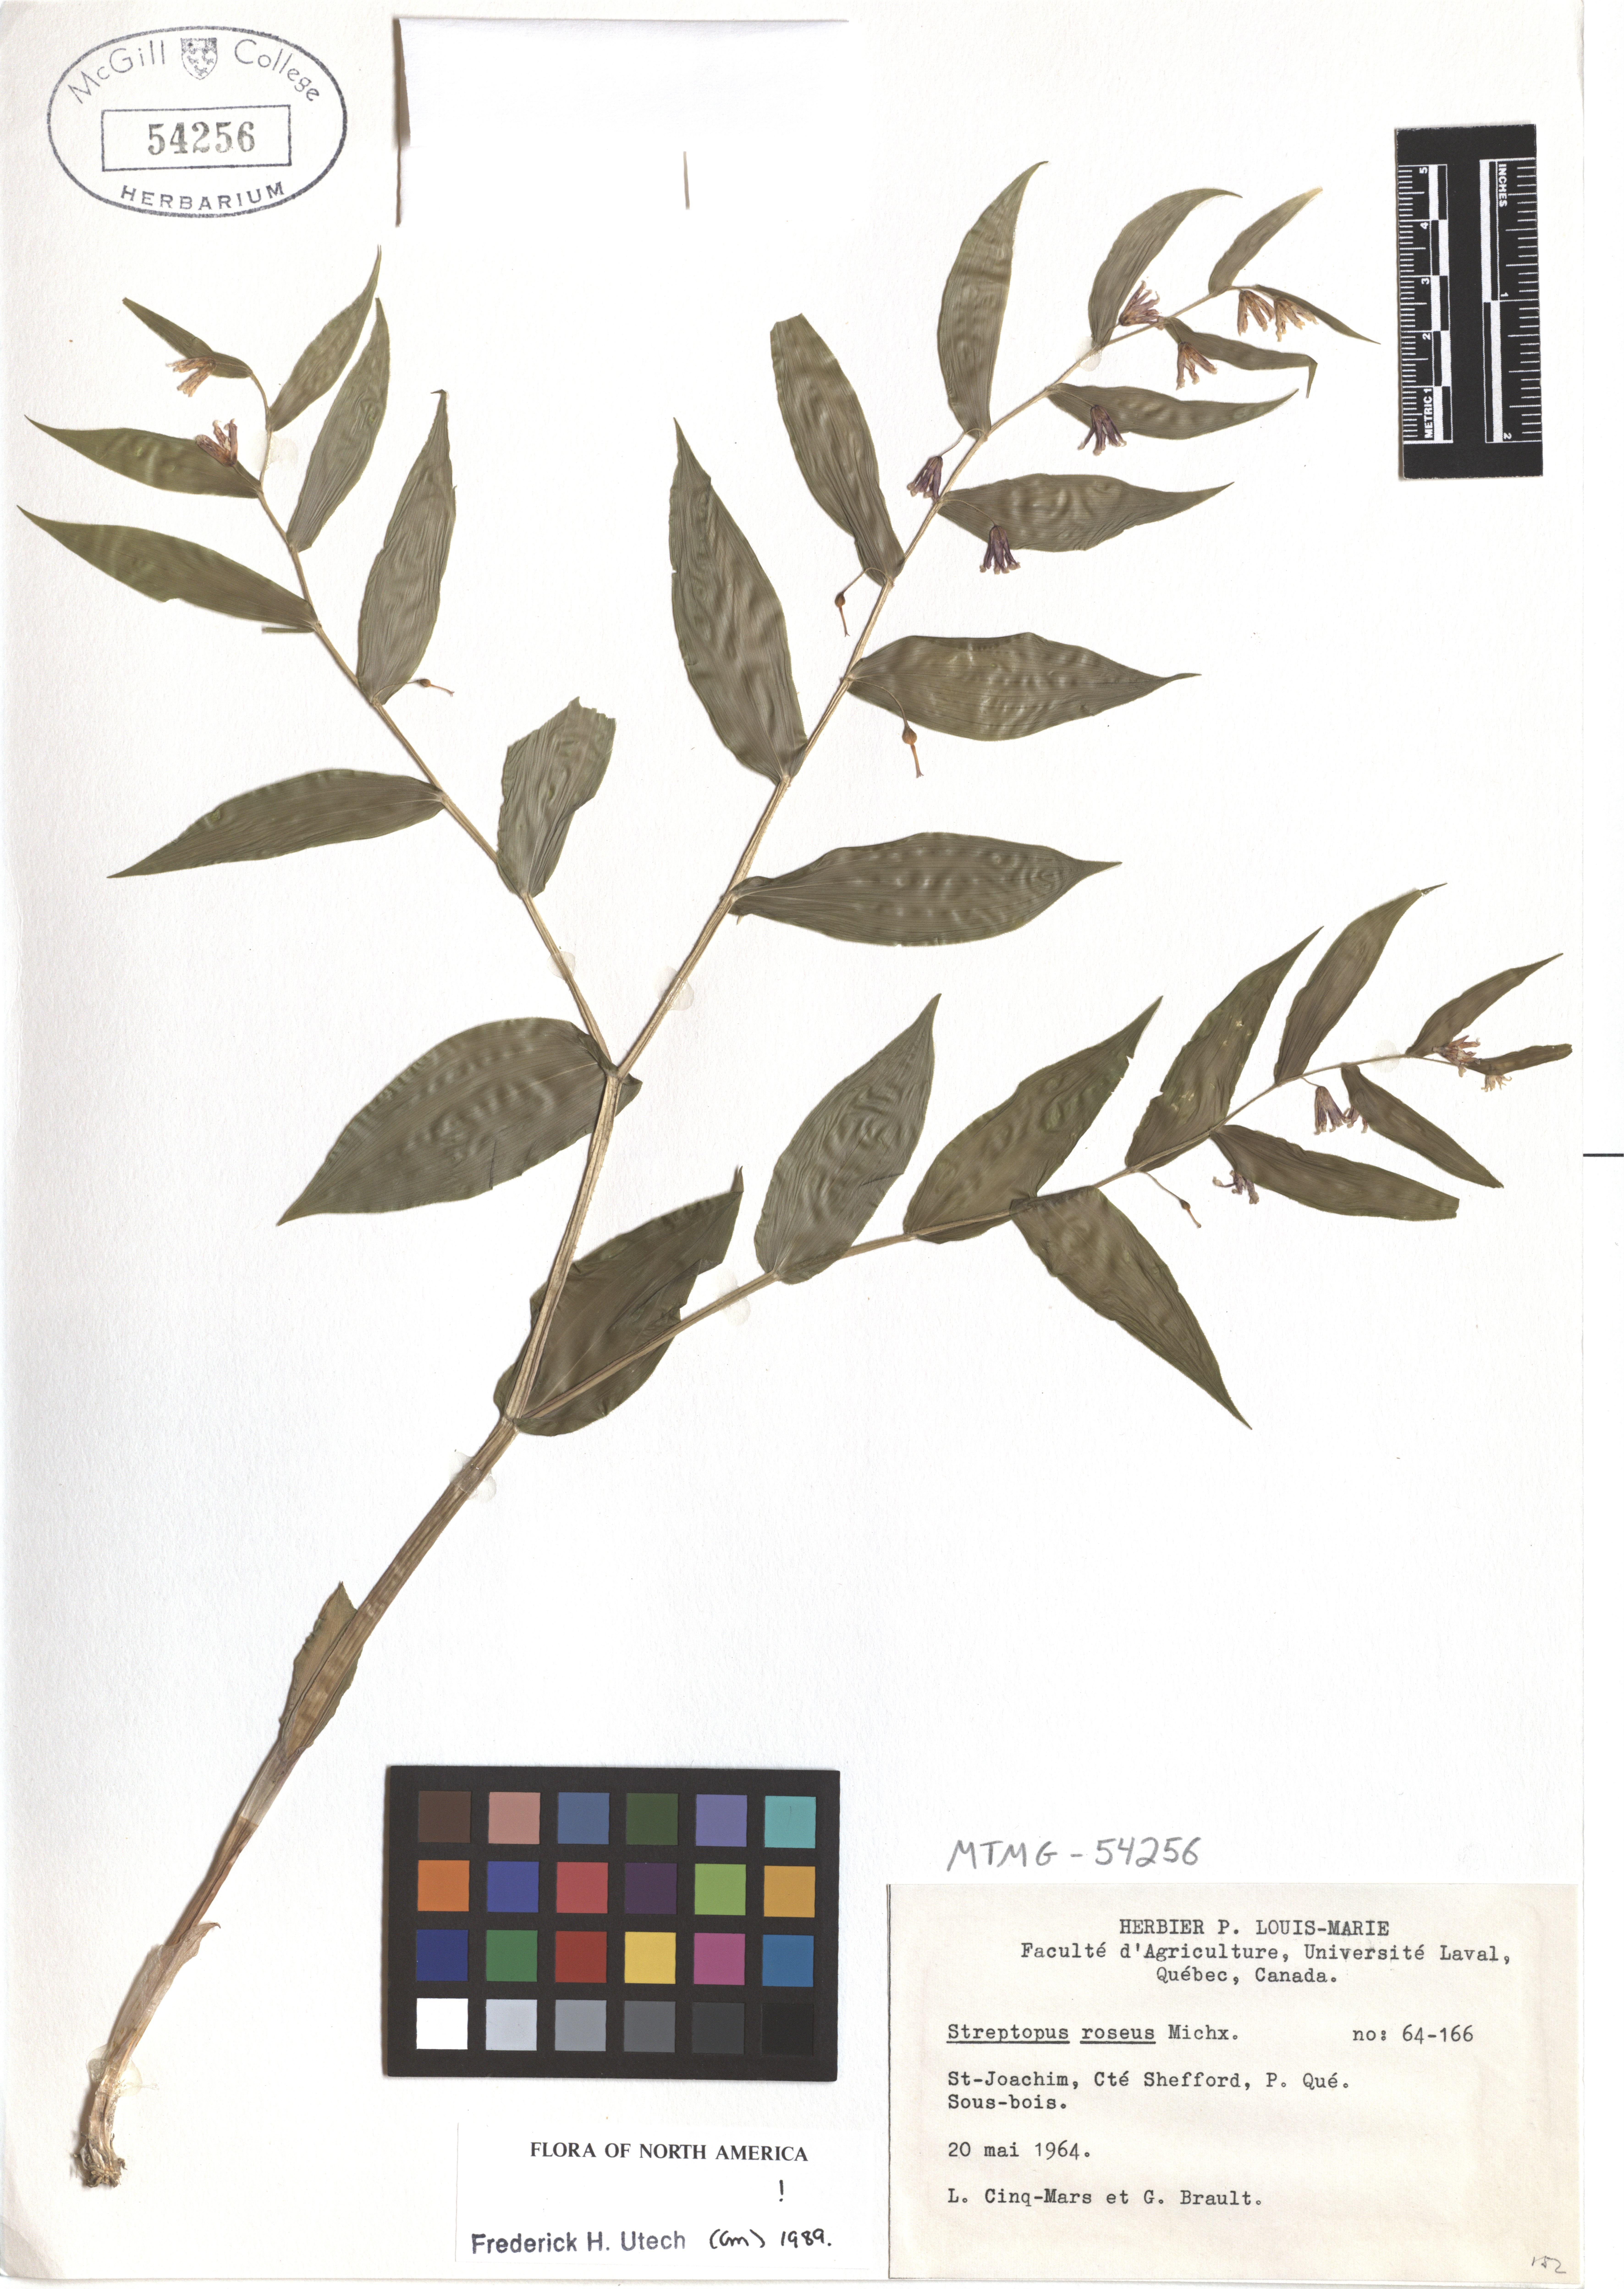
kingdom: Plantae
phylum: Tracheophyta
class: Liliopsida
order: Liliales
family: Liliaceae
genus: Streptopus
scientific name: Streptopus lanceolatus
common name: Rose mandarin
